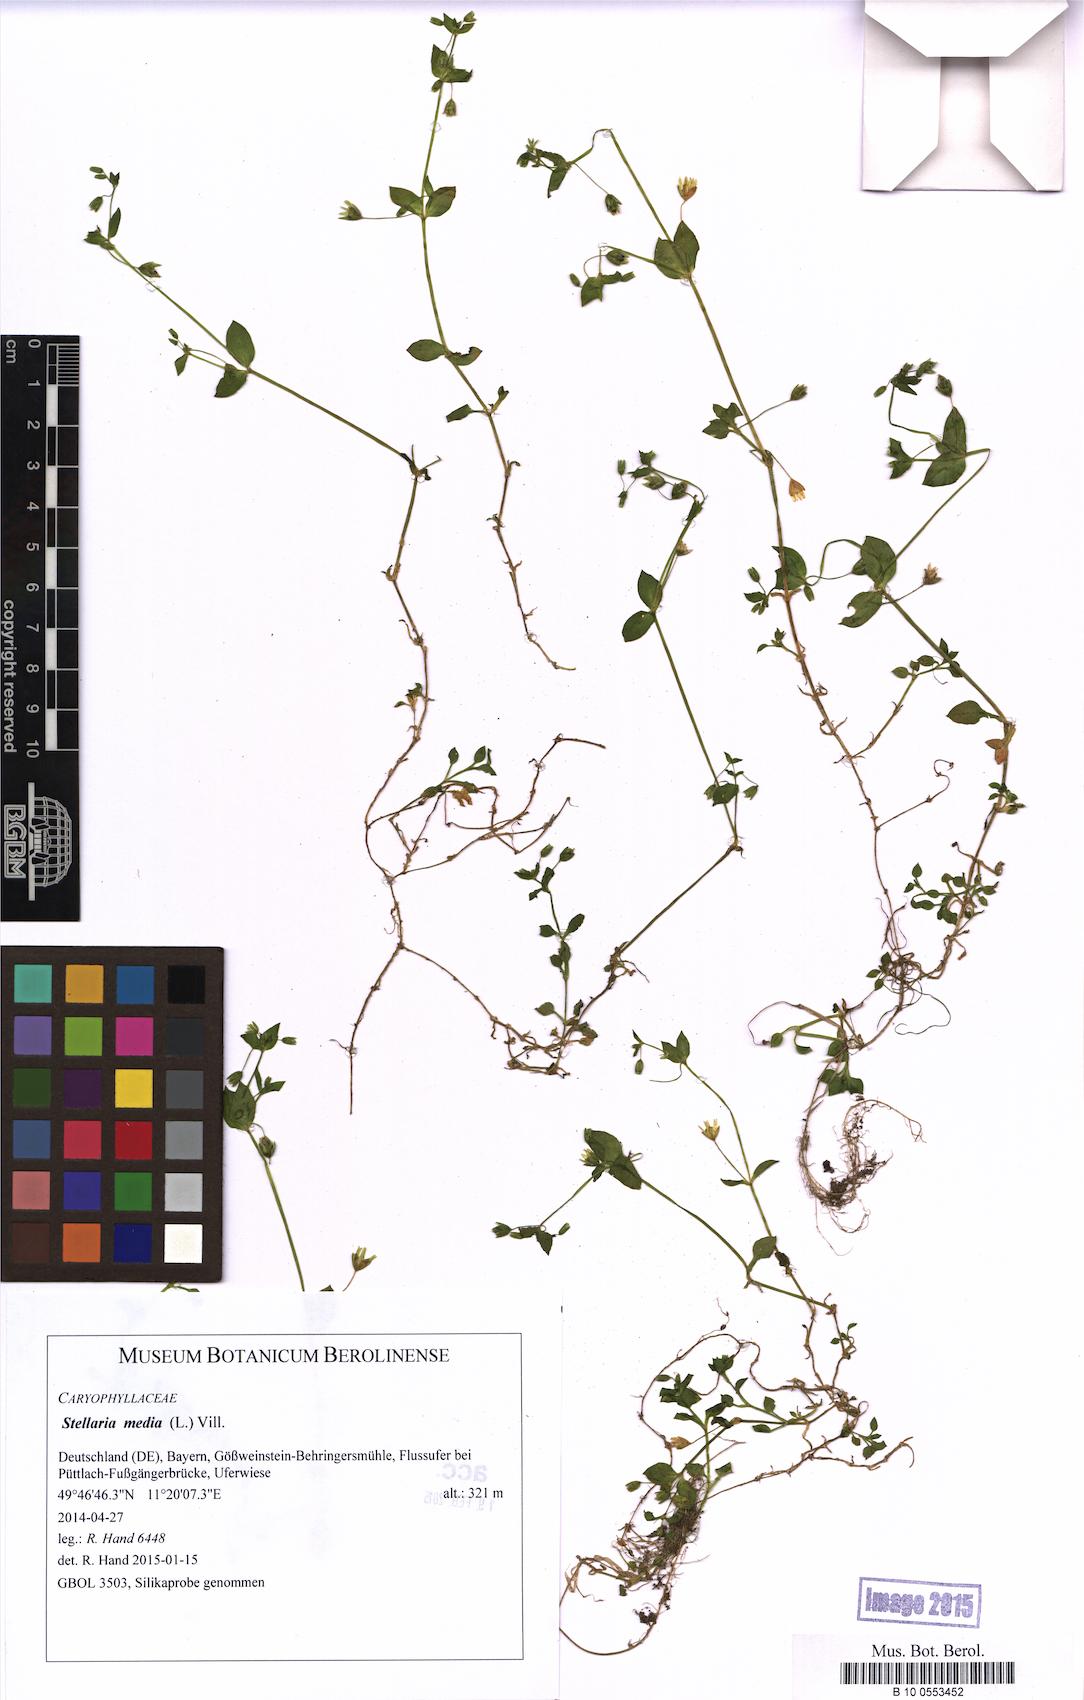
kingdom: Plantae
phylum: Tracheophyta
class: Magnoliopsida
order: Caryophyllales
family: Caryophyllaceae
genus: Stellaria
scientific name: Stellaria media
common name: Common chickweed
